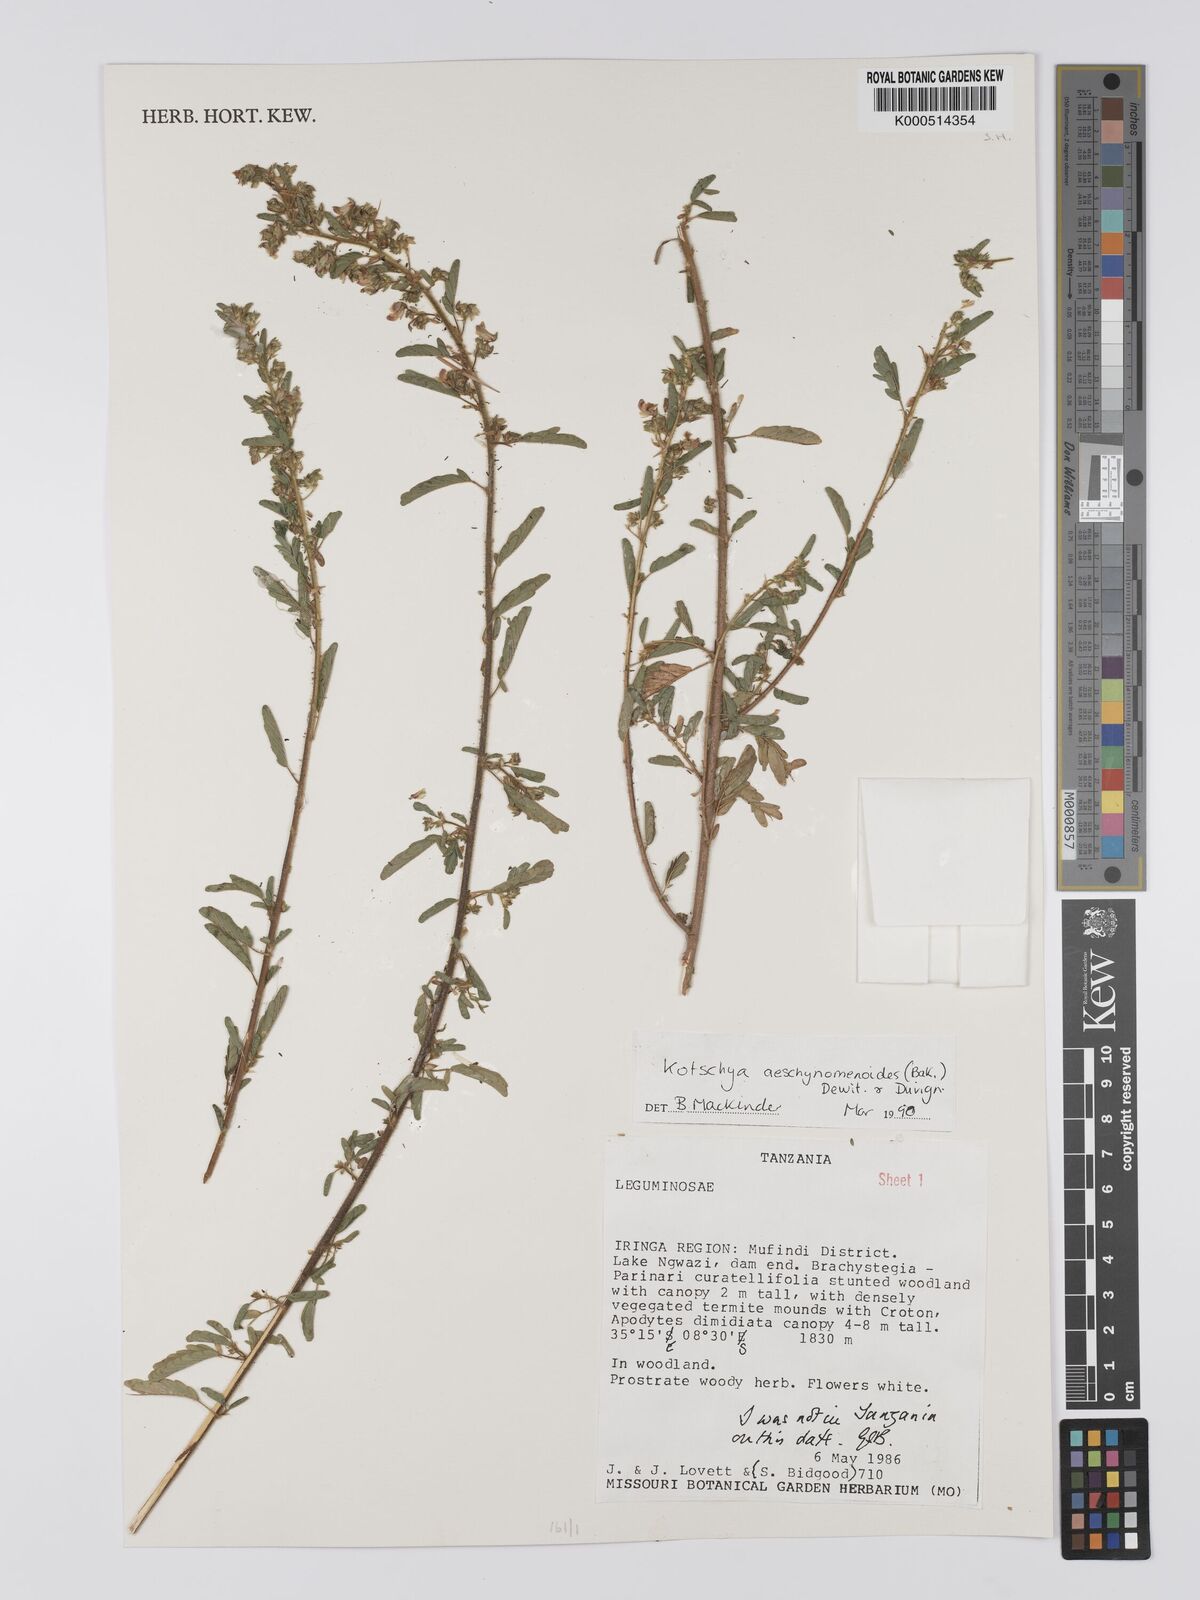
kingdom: Plantae
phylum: Tracheophyta
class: Magnoliopsida
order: Fabales
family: Fabaceae
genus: Kotschya
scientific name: Kotschya aeschynomenoides
